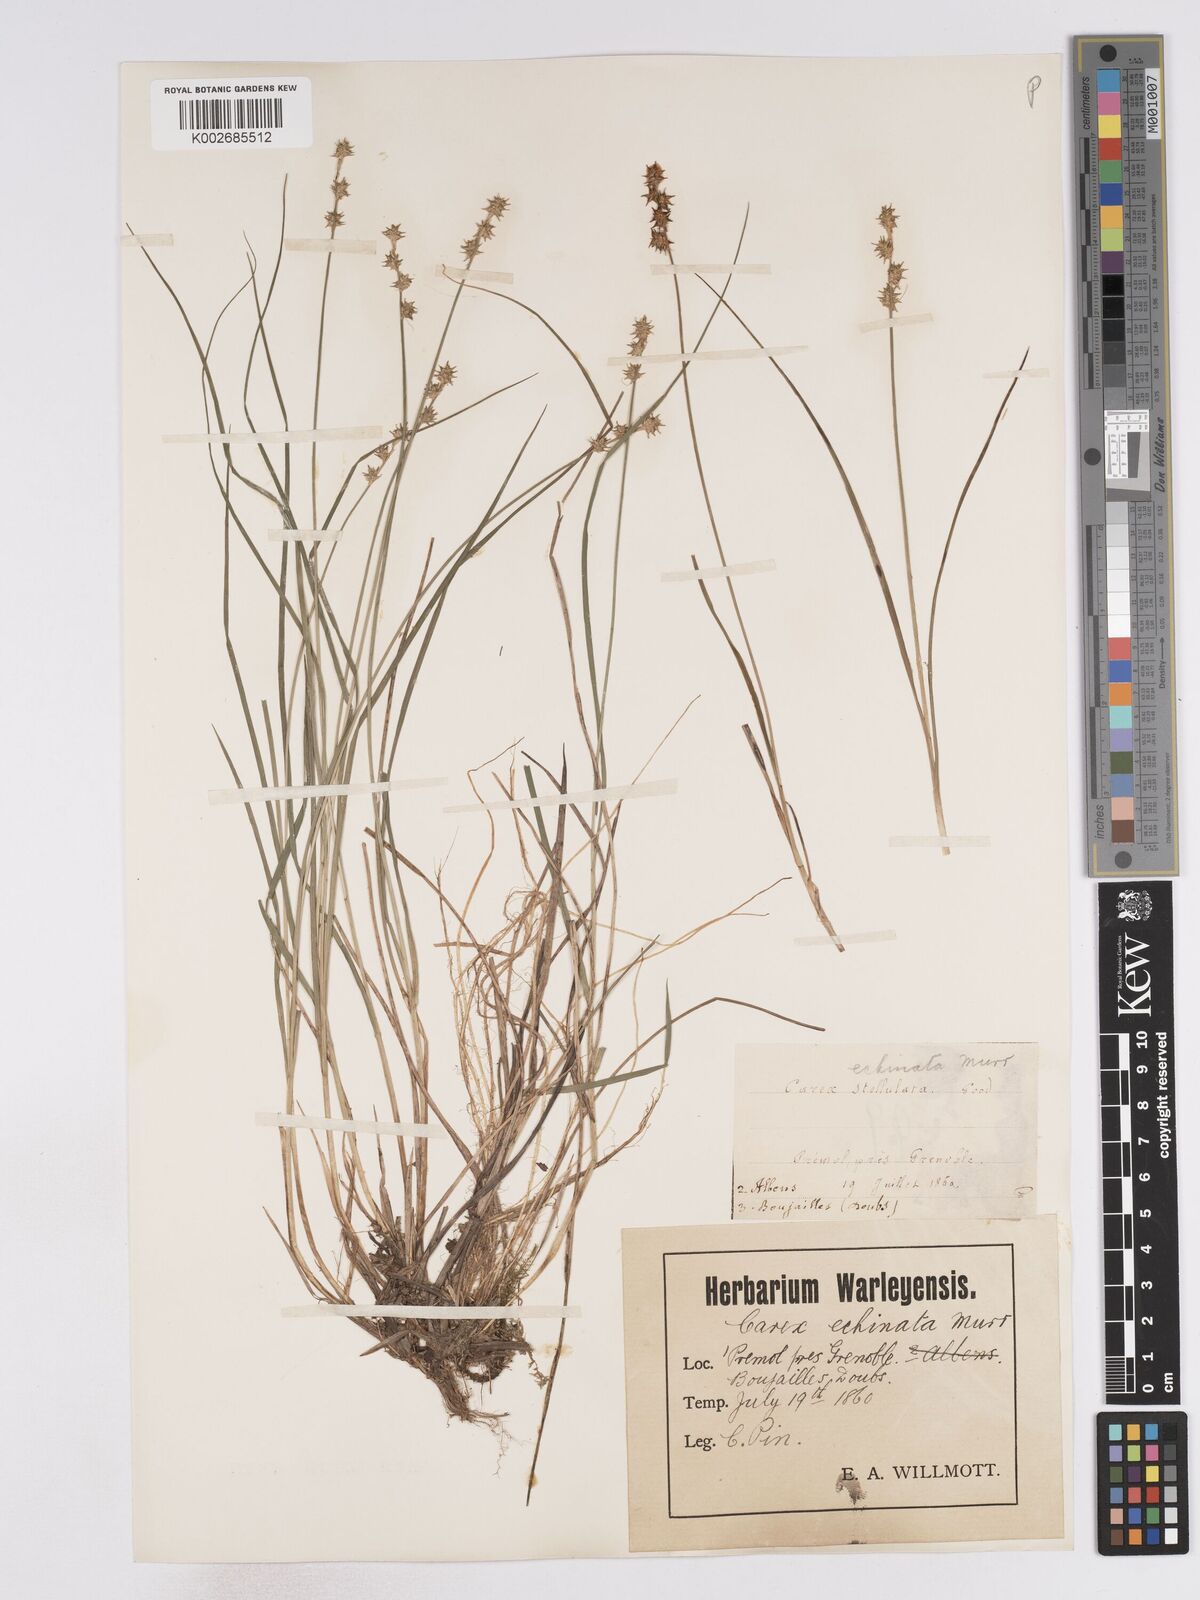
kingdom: Plantae
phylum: Tracheophyta
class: Liliopsida
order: Poales
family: Cyperaceae
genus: Carex
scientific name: Carex echinata
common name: Star sedge
